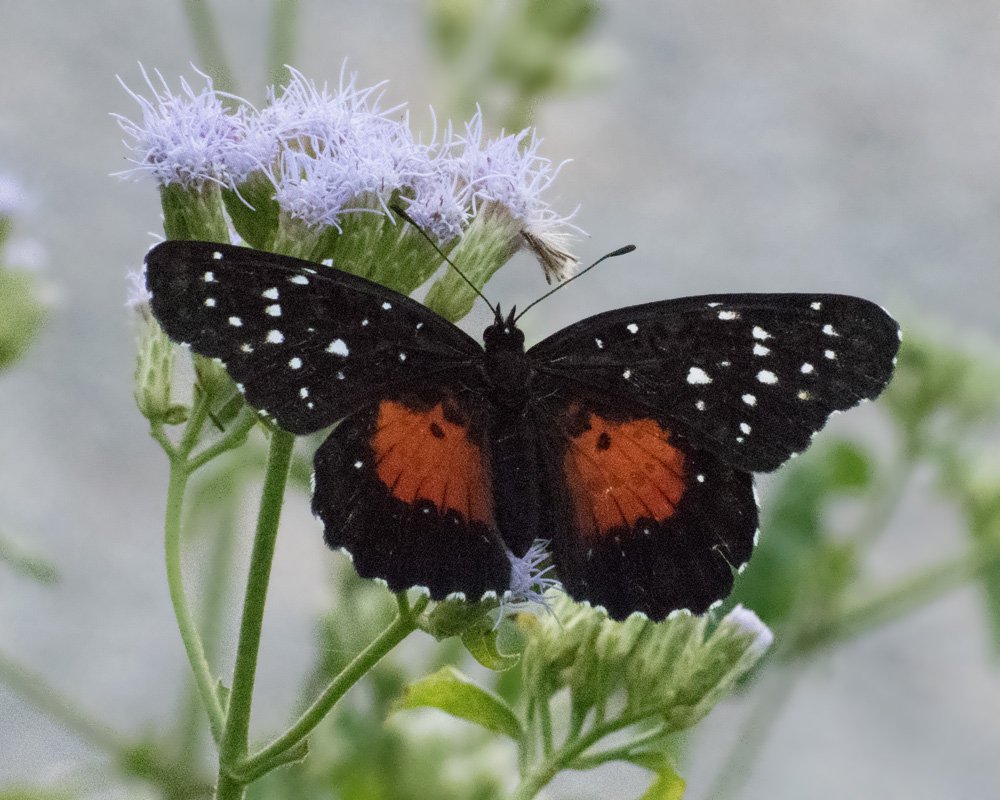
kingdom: Animalia
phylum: Arthropoda
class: Insecta
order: Lepidoptera
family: Nymphalidae
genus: Chlosyne
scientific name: Chlosyne janais
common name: Crimson Patch
